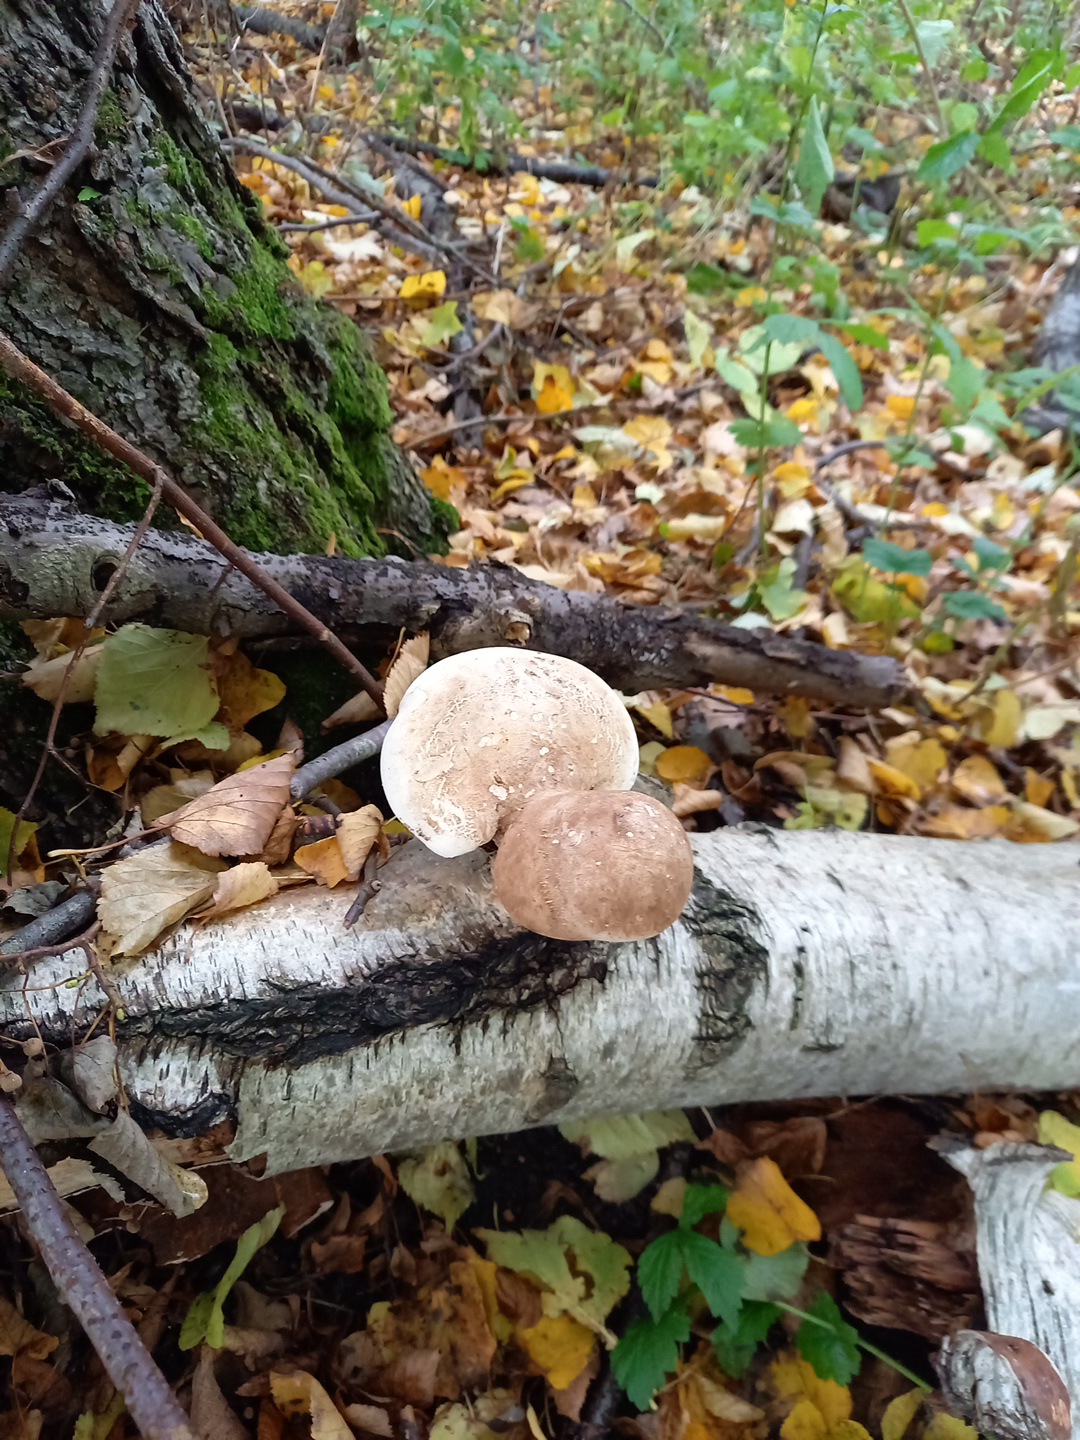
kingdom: Fungi
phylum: Basidiomycota
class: Agaricomycetes
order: Polyporales
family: Fomitopsidaceae
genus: Fomitopsis
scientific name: Fomitopsis betulina
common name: birkeporesvamp
